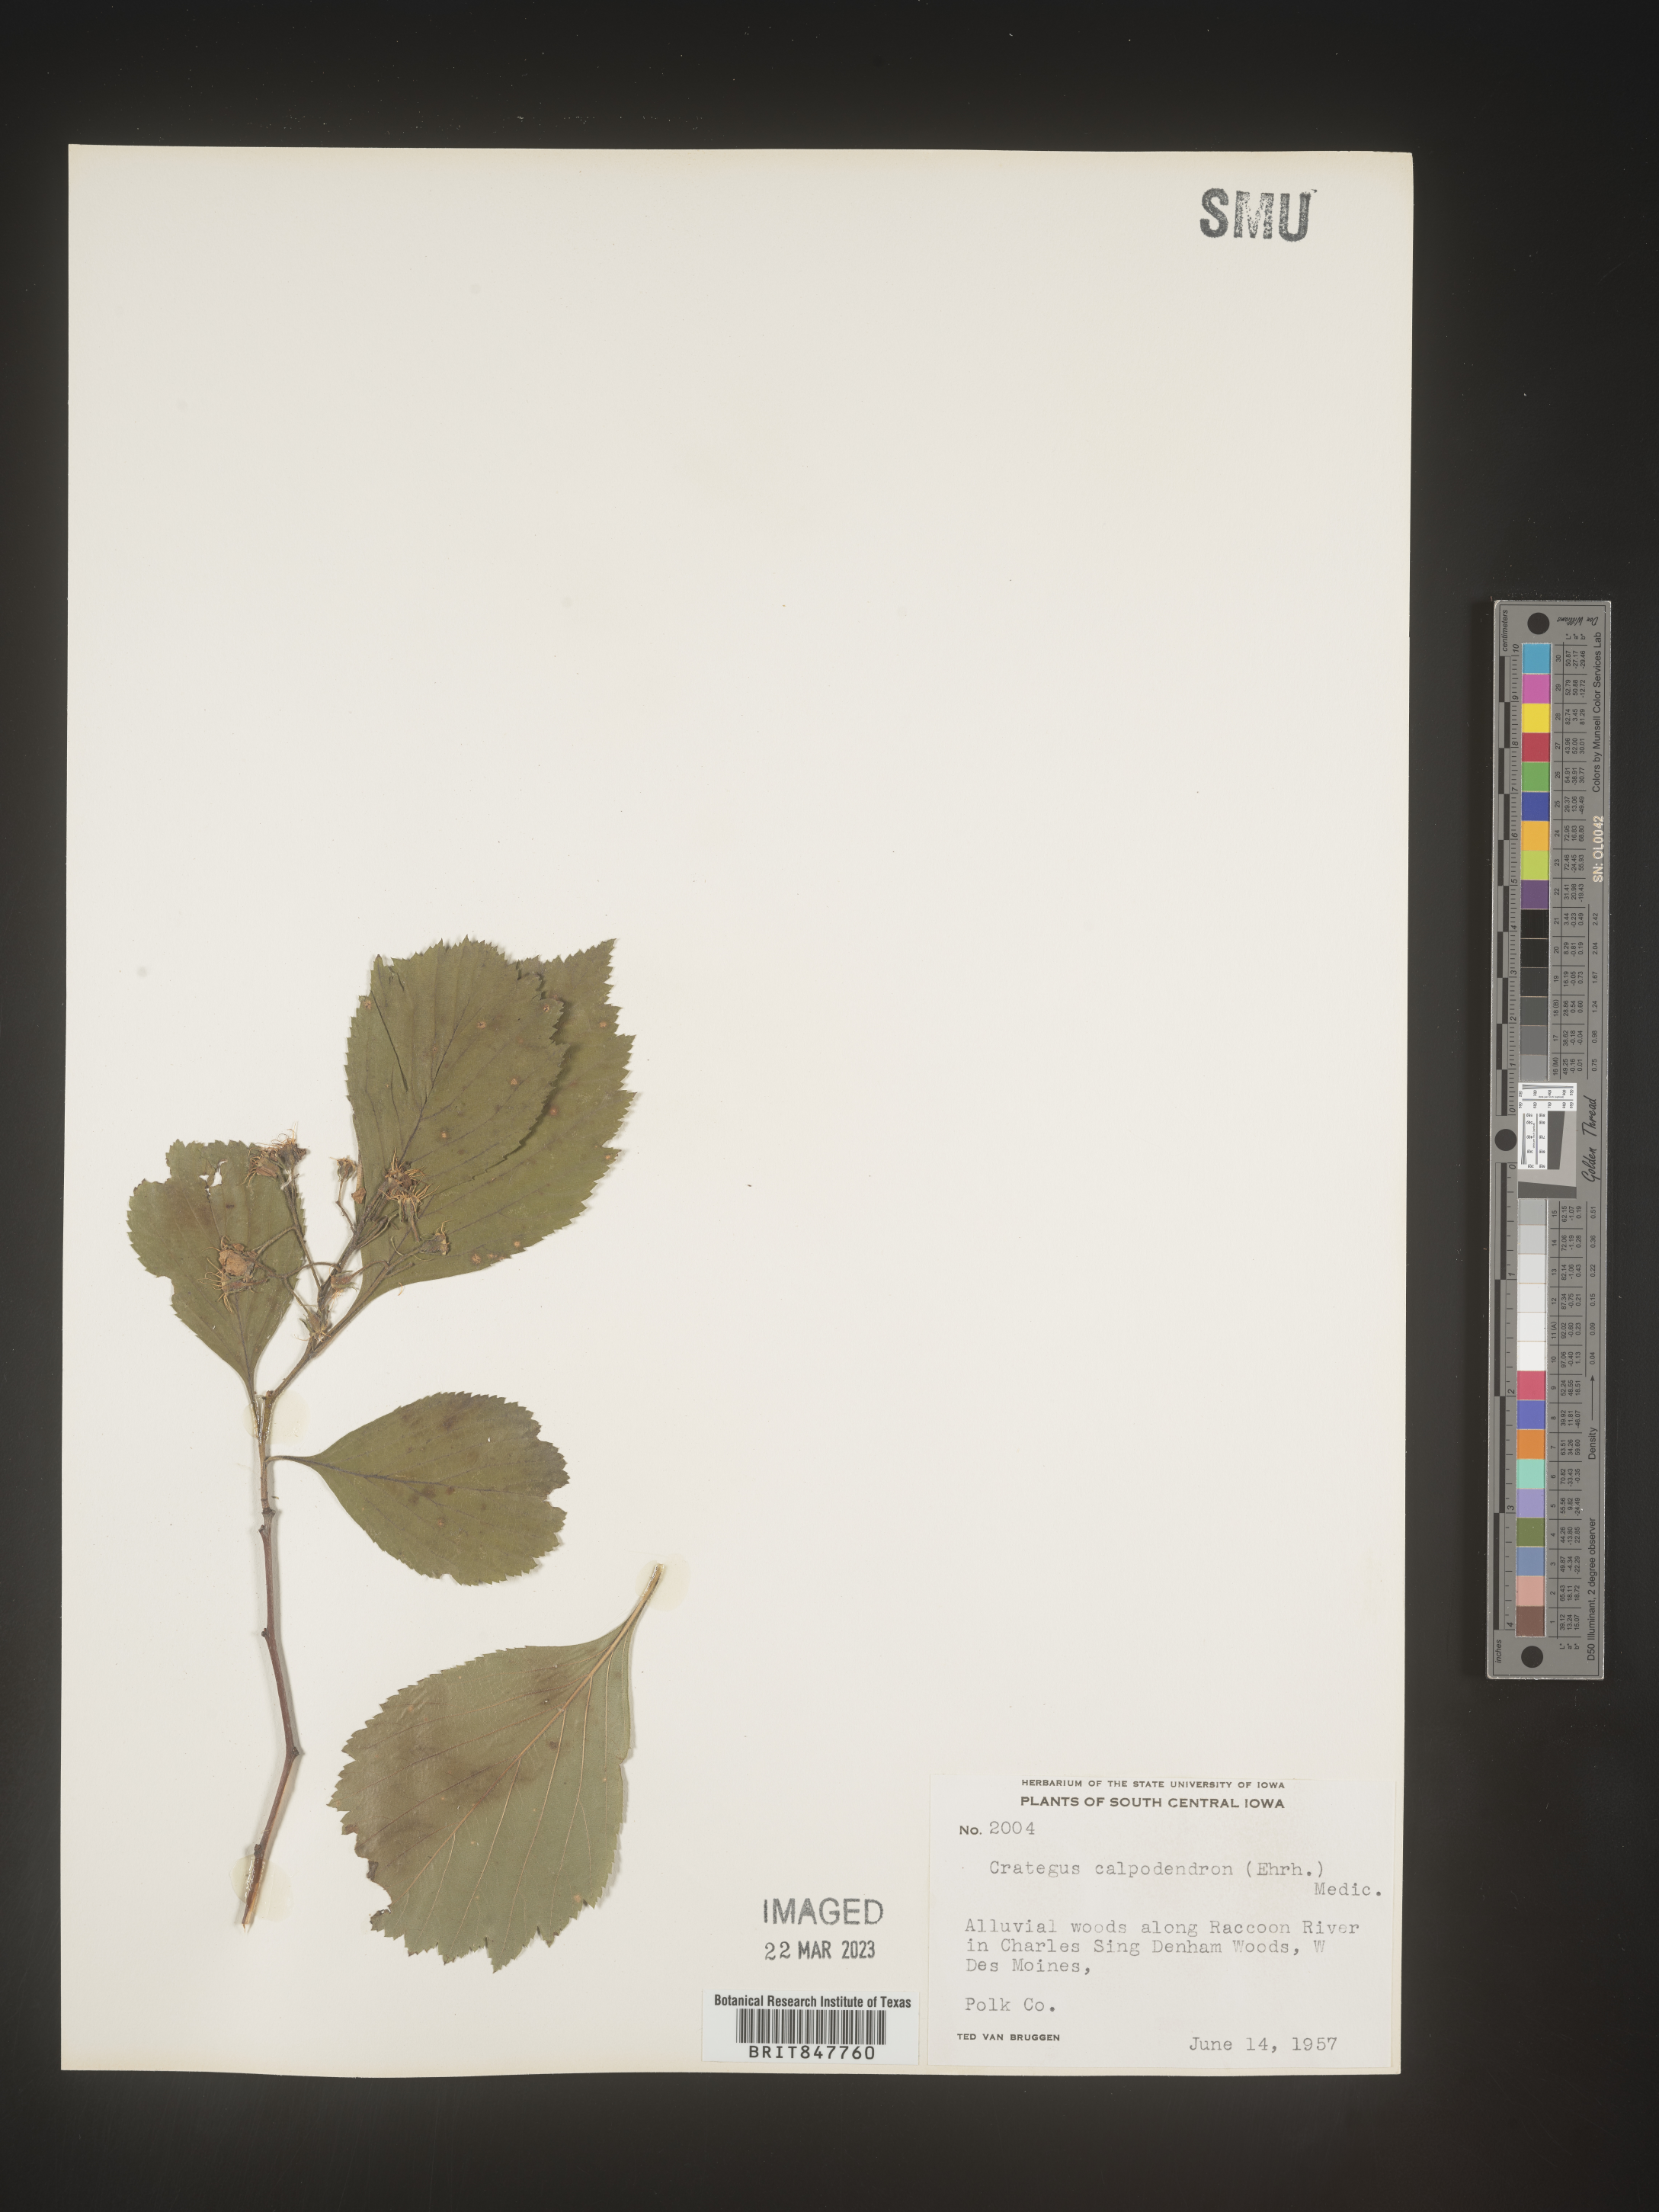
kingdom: Plantae
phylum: Tracheophyta
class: Magnoliopsida
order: Rosales
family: Rosaceae
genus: Crataegus
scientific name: Crataegus calpodendron
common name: Pear hawthorn
